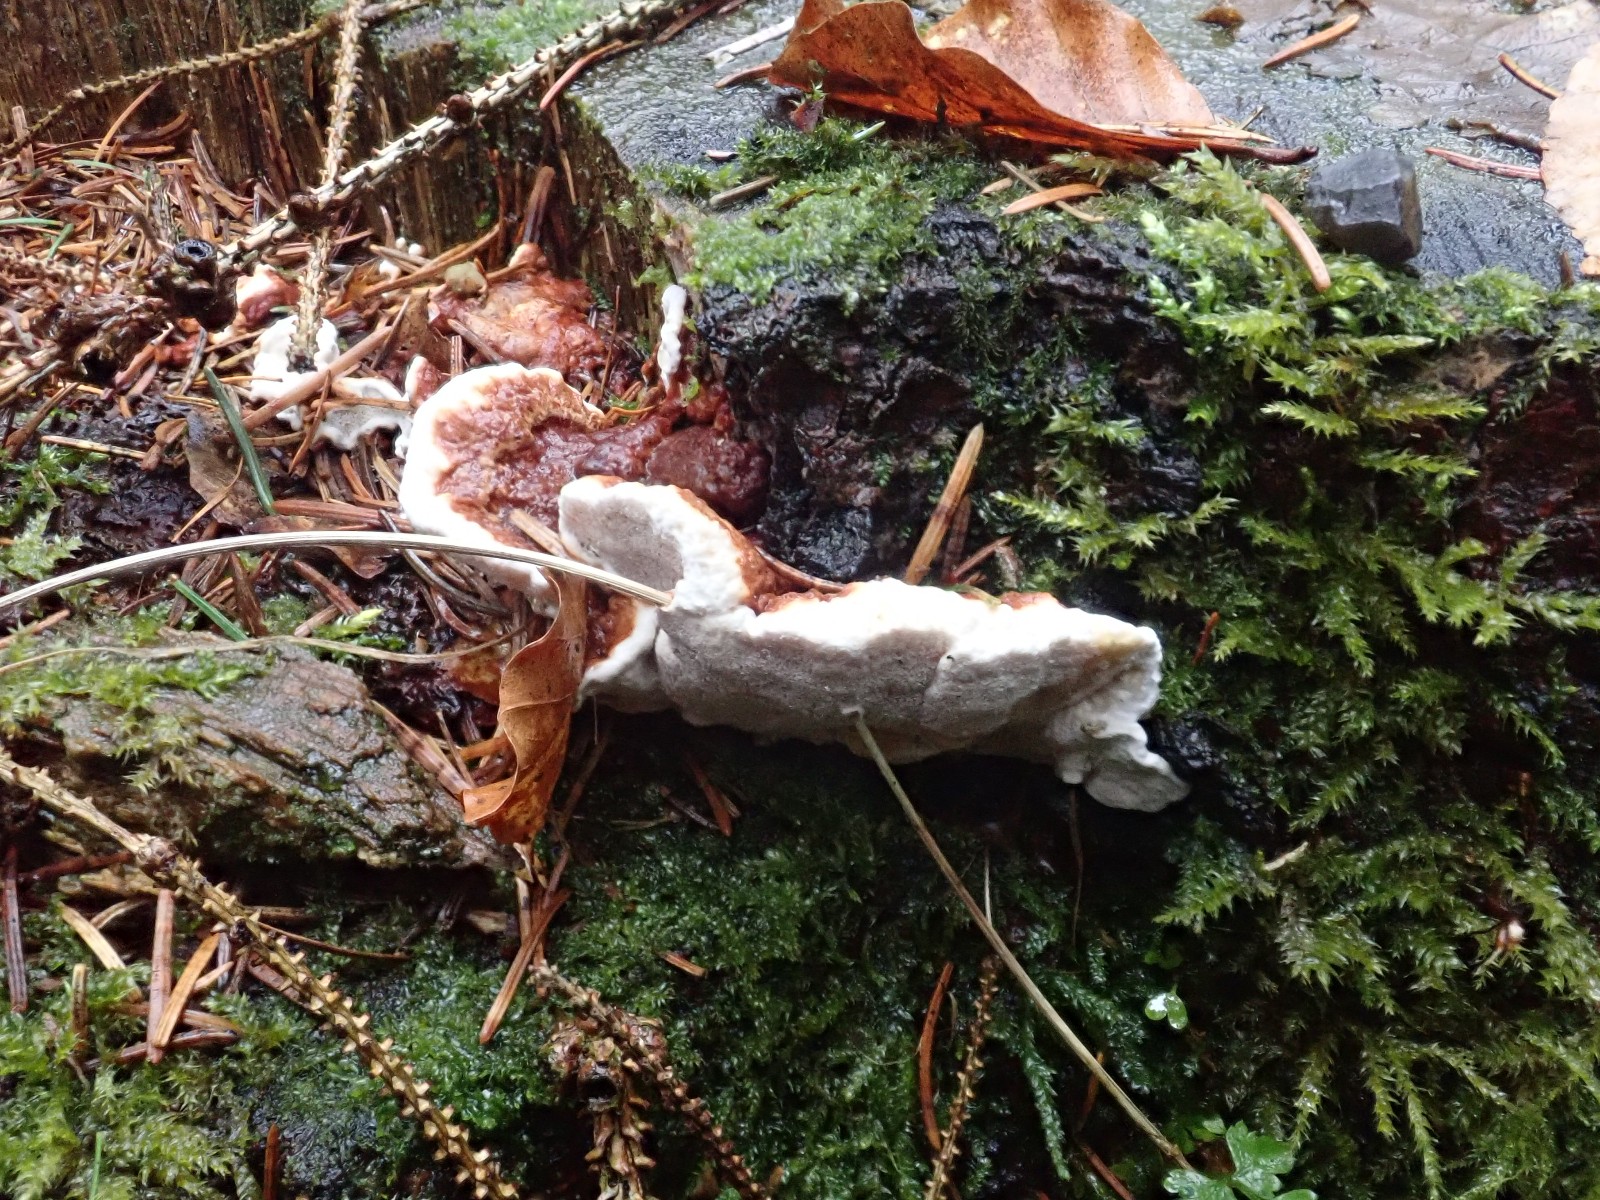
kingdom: Fungi
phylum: Basidiomycota
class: Agaricomycetes
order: Russulales
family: Bondarzewiaceae
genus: Heterobasidion
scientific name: Heterobasidion annosum
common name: almindelig rodfordærver
